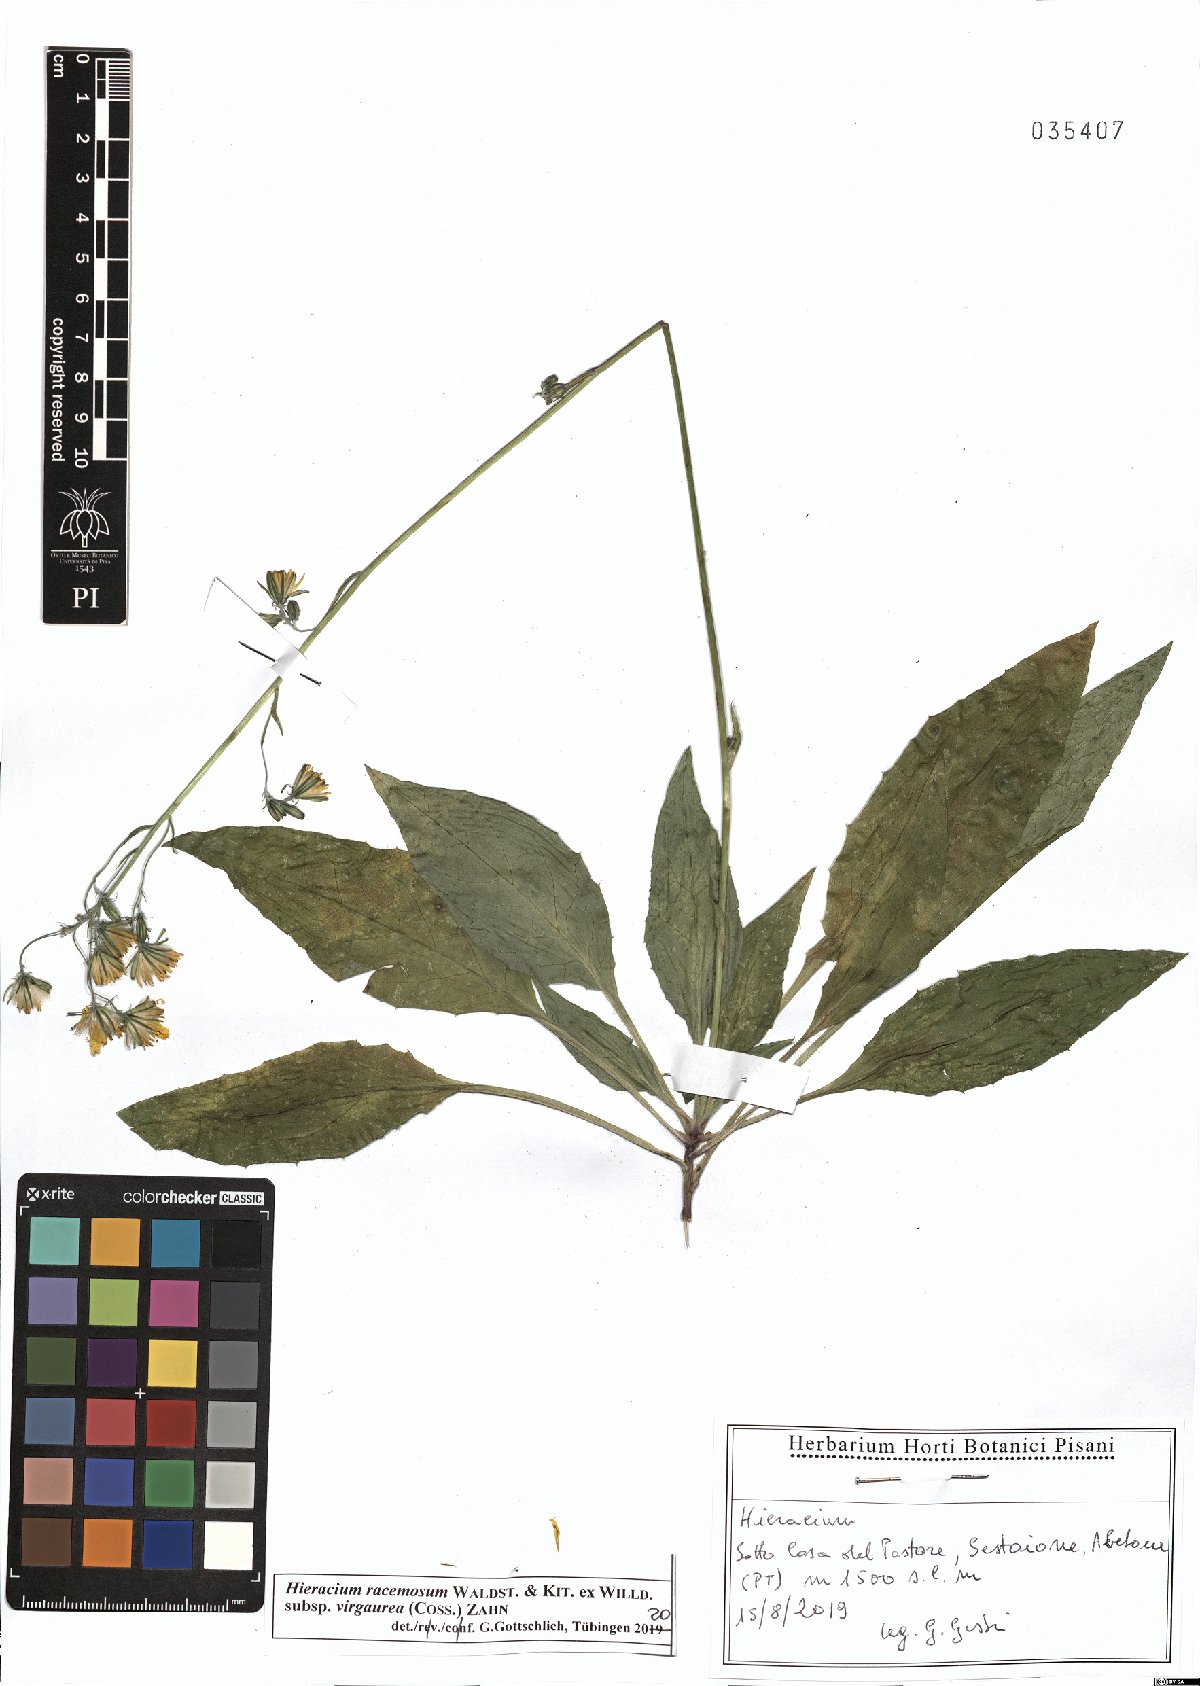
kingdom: Plantae
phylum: Tracheophyta
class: Magnoliopsida
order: Asterales
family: Asteraceae
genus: Hieracium
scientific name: Hieracium racemosum
